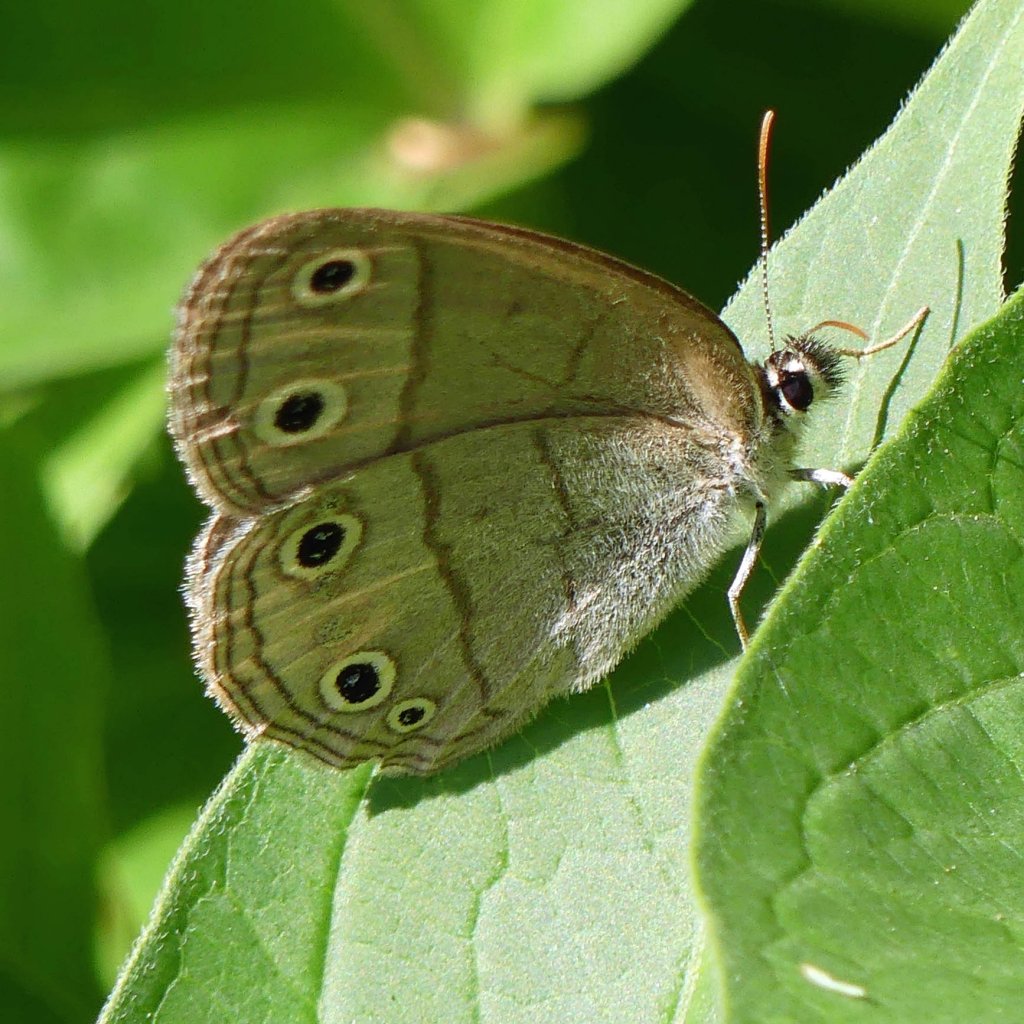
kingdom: Animalia
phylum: Arthropoda
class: Insecta
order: Lepidoptera
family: Nymphalidae
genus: Euptychia
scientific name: Euptychia cymela
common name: Little Wood Satyr
